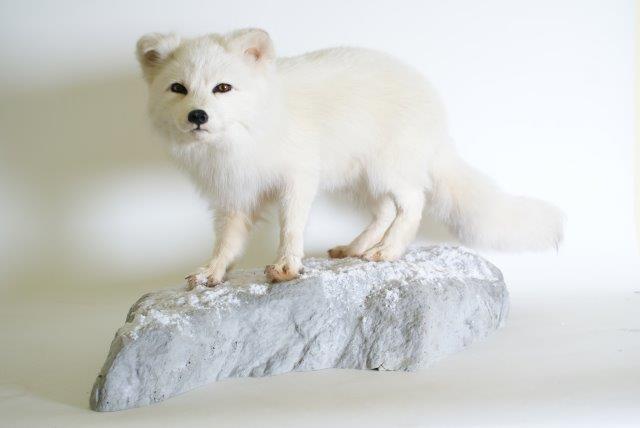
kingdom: Animalia
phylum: Chordata
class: Mammalia
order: Carnivora
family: Canidae
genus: Vulpes
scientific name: Vulpes lagopus
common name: Arctic Fox
